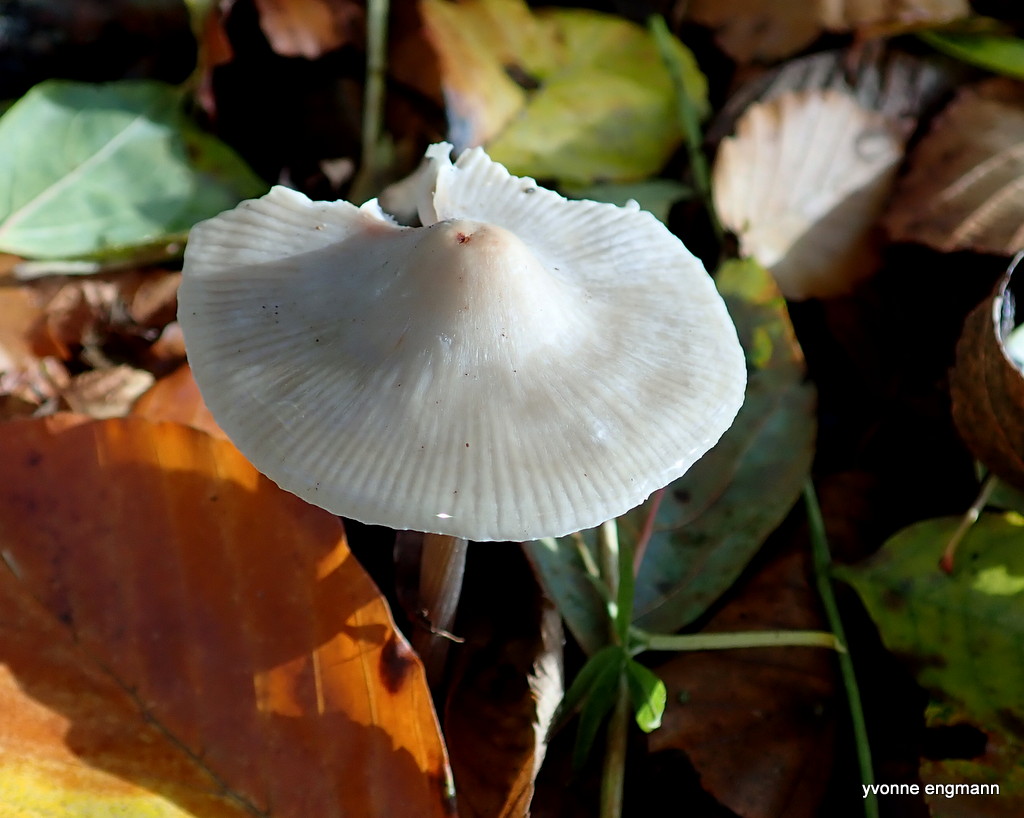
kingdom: Fungi
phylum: Basidiomycota
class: Agaricomycetes
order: Agaricales
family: Mycenaceae
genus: Mycena
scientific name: Mycena polygramma
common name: mangestribet huesvamp
